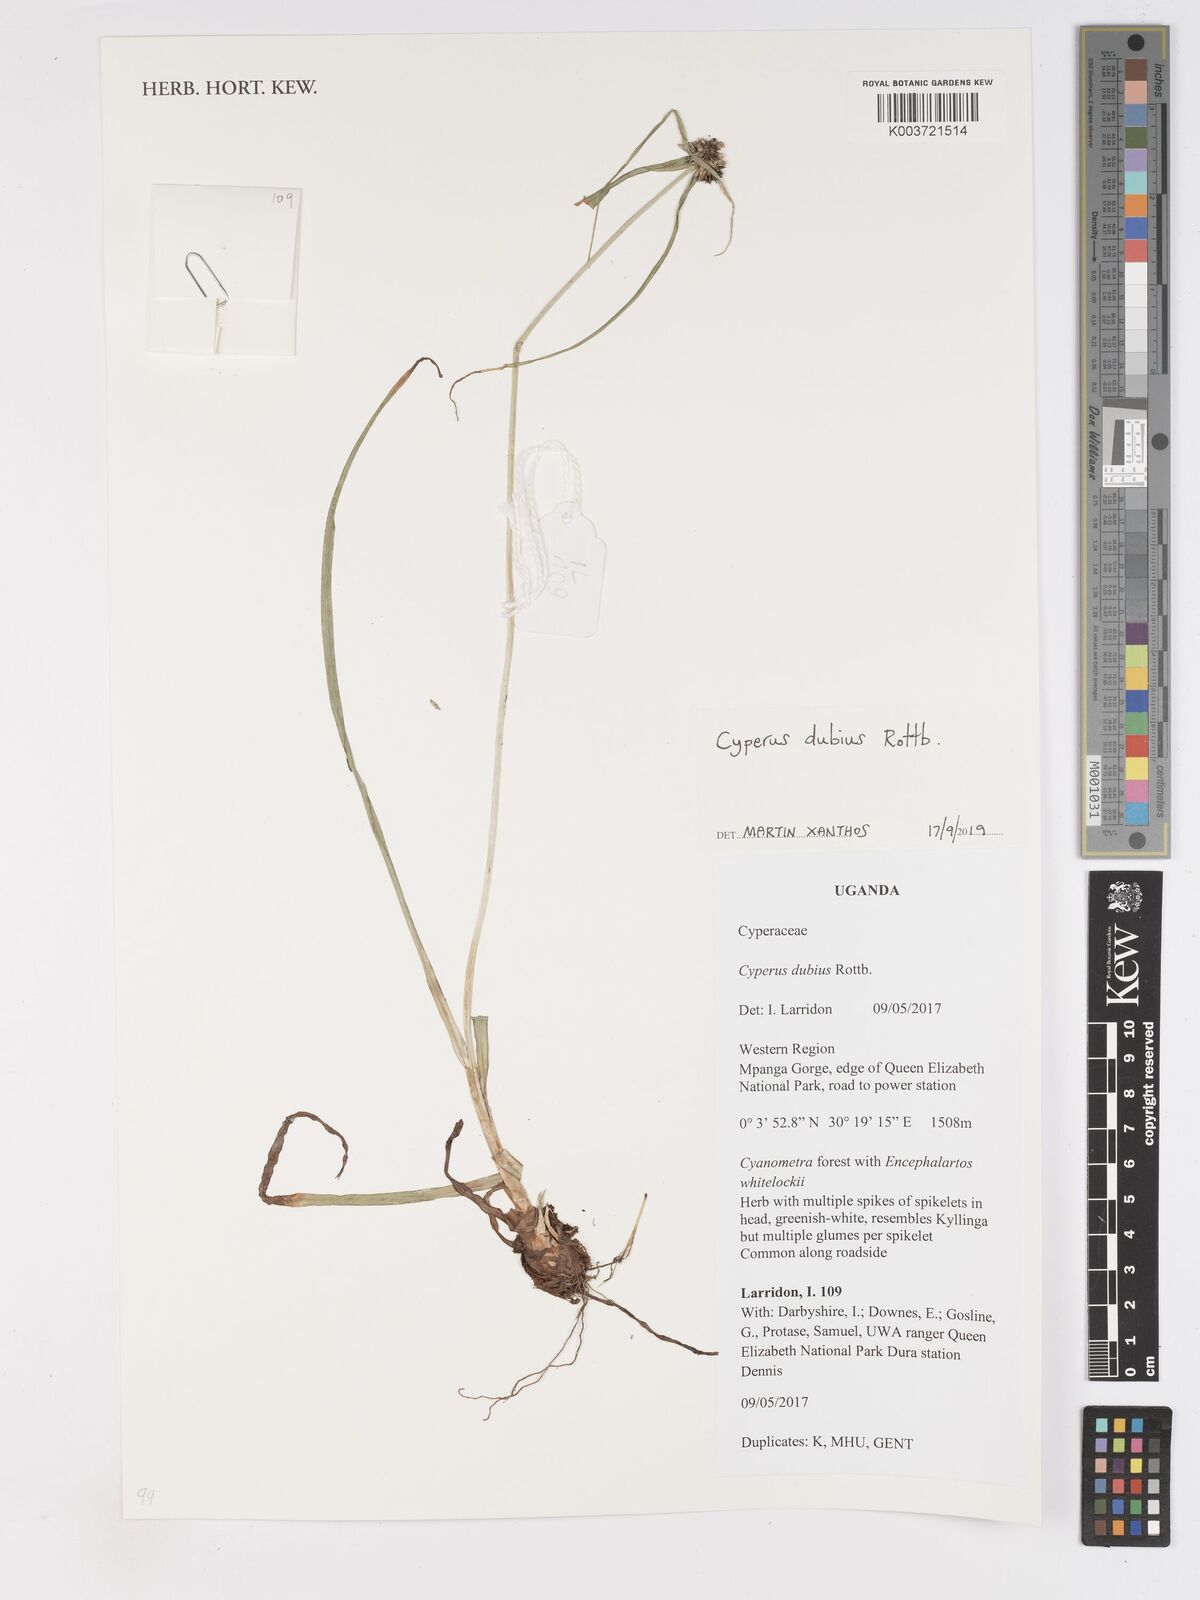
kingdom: Plantae
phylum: Tracheophyta
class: Liliopsida
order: Poales
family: Cyperaceae
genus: Cyperus
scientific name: Cyperus dubius
